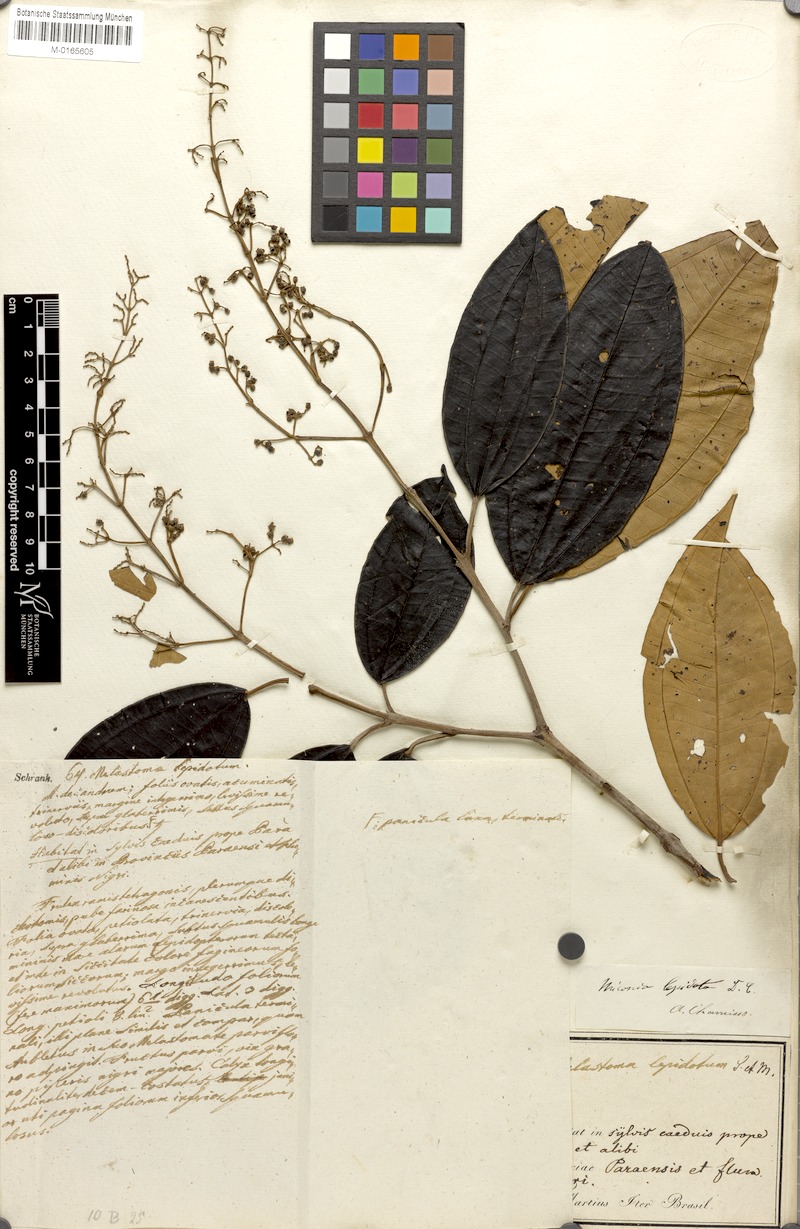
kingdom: Plantae
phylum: Tracheophyta
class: Magnoliopsida
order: Myrtales
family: Melastomataceae
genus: Miconia
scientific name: Miconia lepidota
